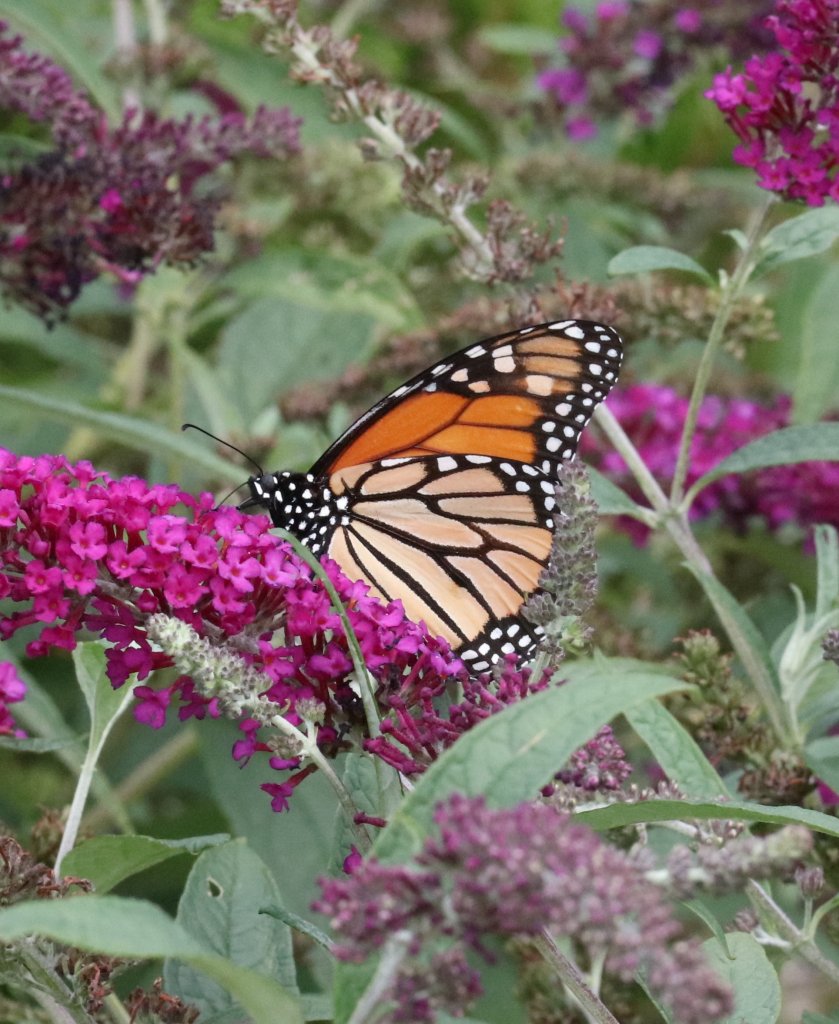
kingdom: Animalia
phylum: Arthropoda
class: Insecta
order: Lepidoptera
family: Nymphalidae
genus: Danaus
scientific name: Danaus plexippus
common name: Monarch
